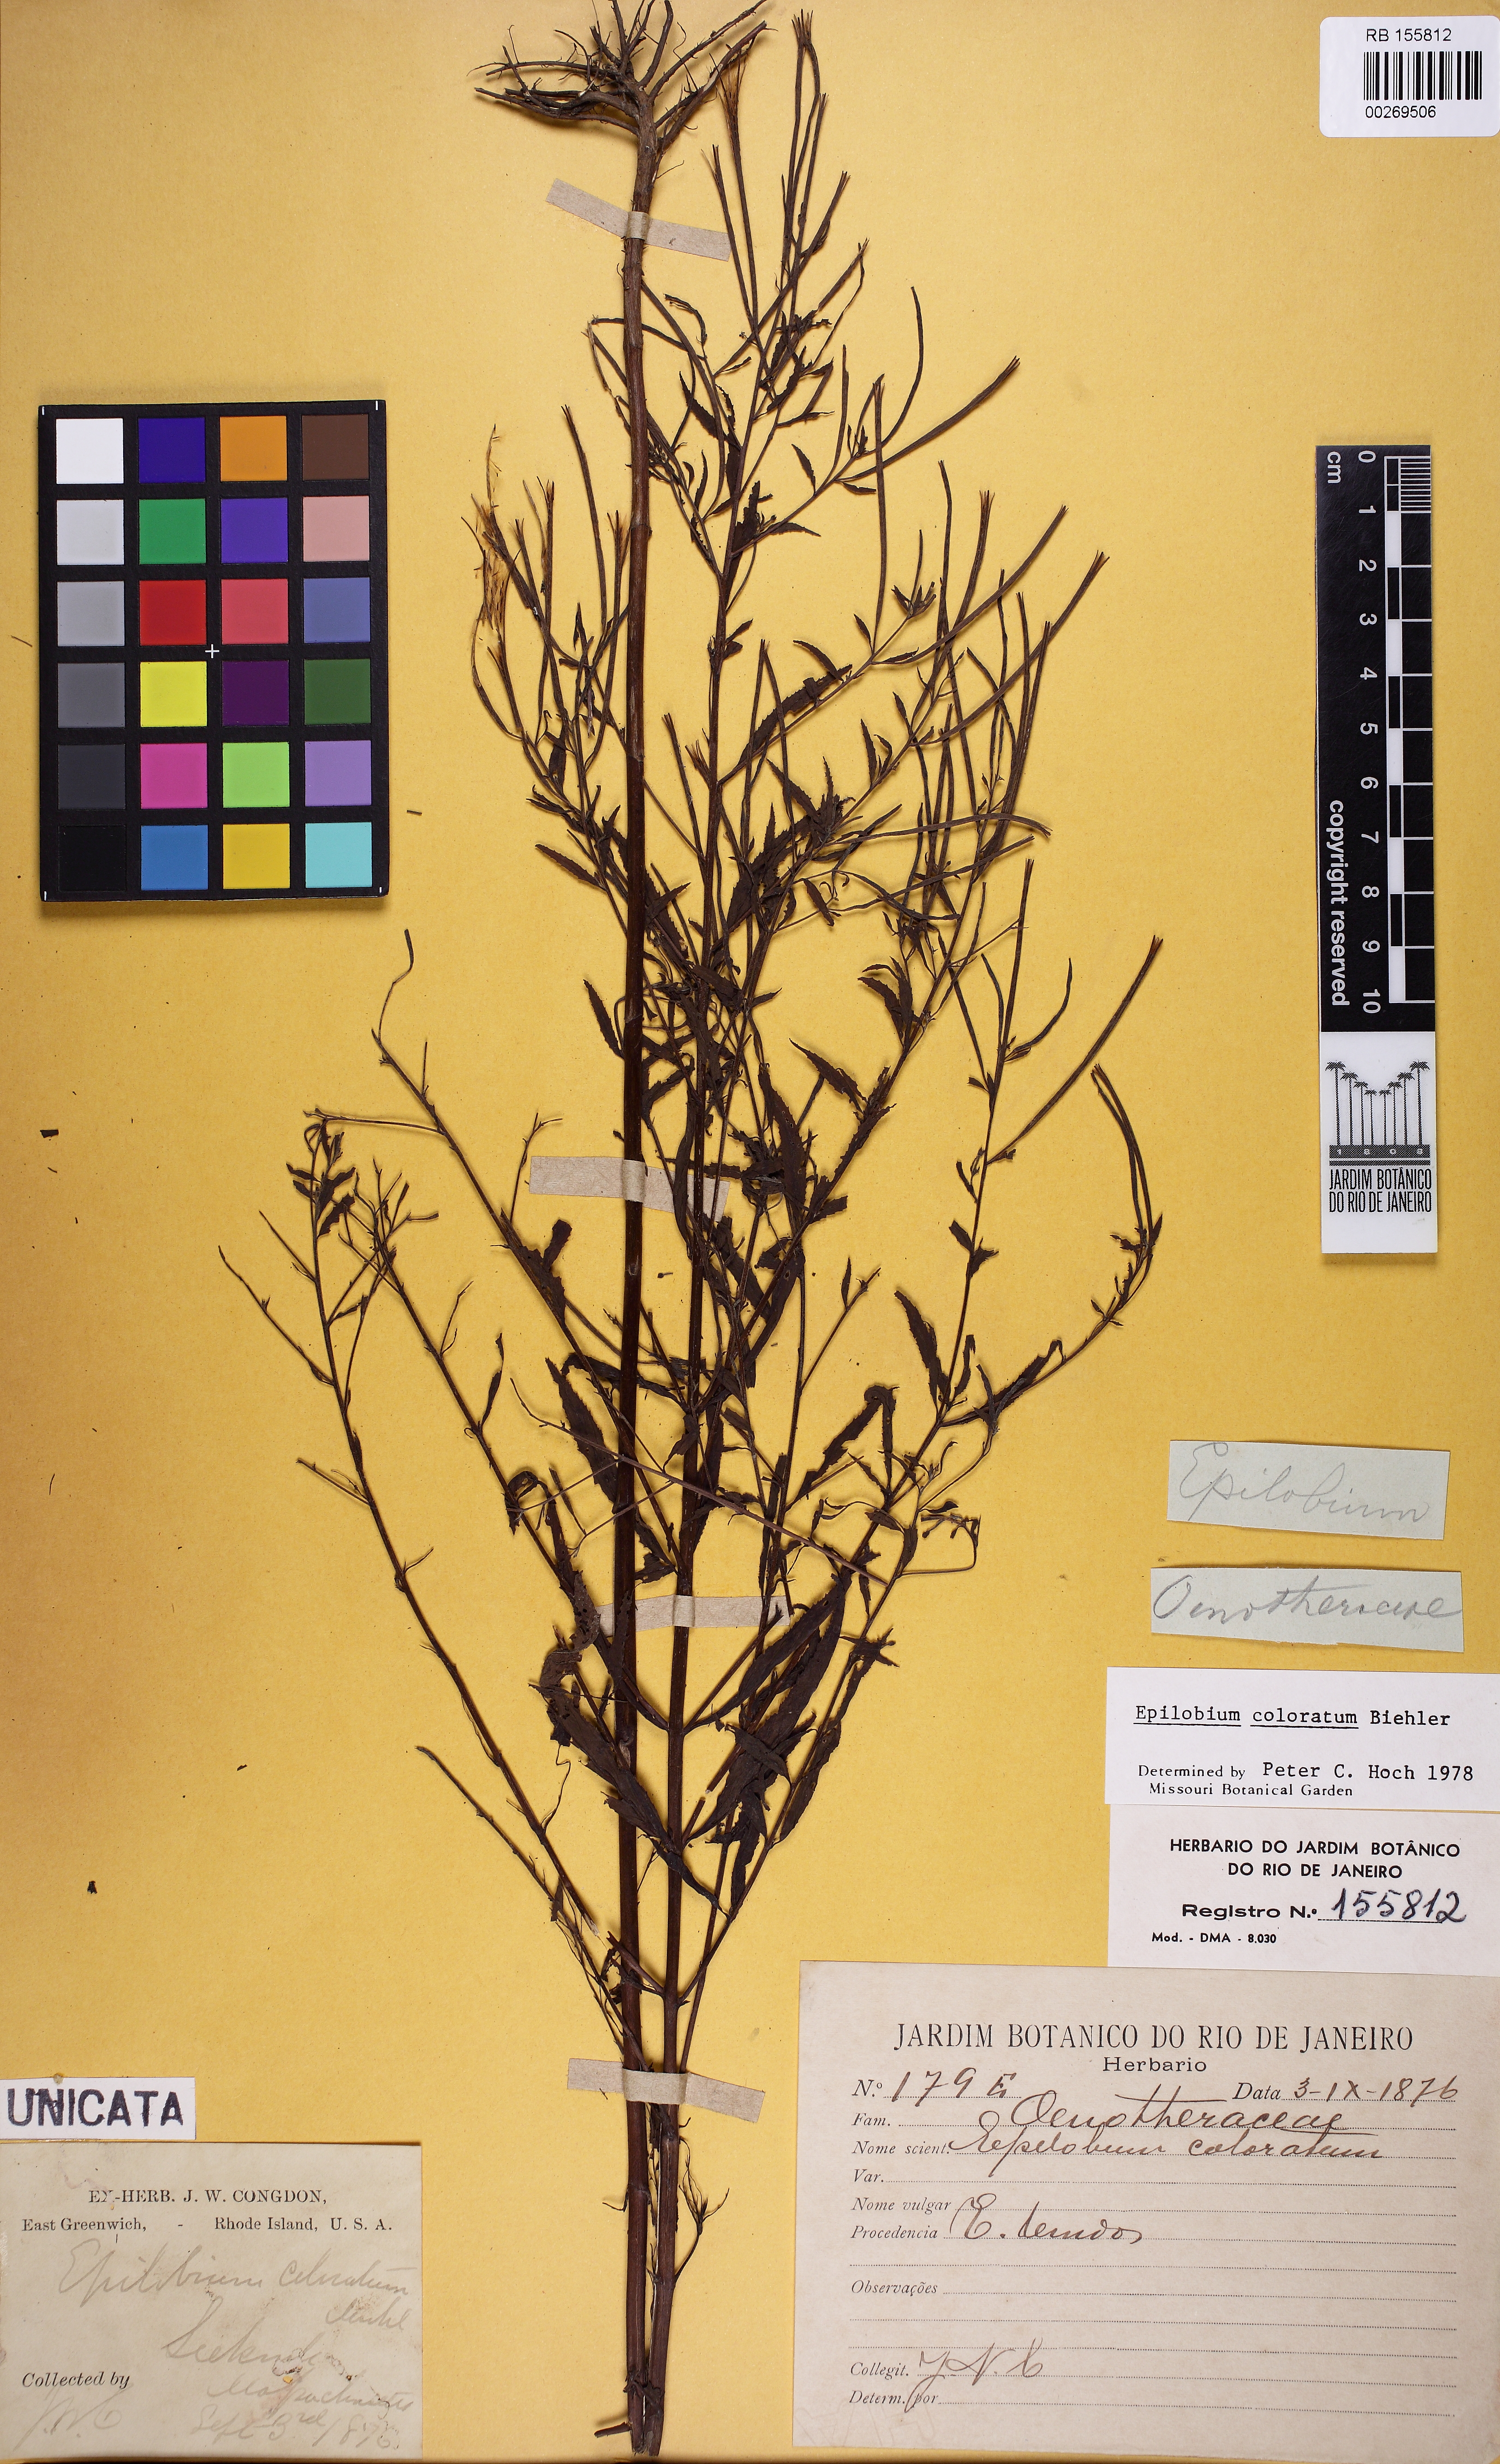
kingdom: Plantae
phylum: Tracheophyta
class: Magnoliopsida
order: Myrtales
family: Onagraceae
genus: Epilobium
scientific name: Epilobium coloratum
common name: Bronze willowherb
